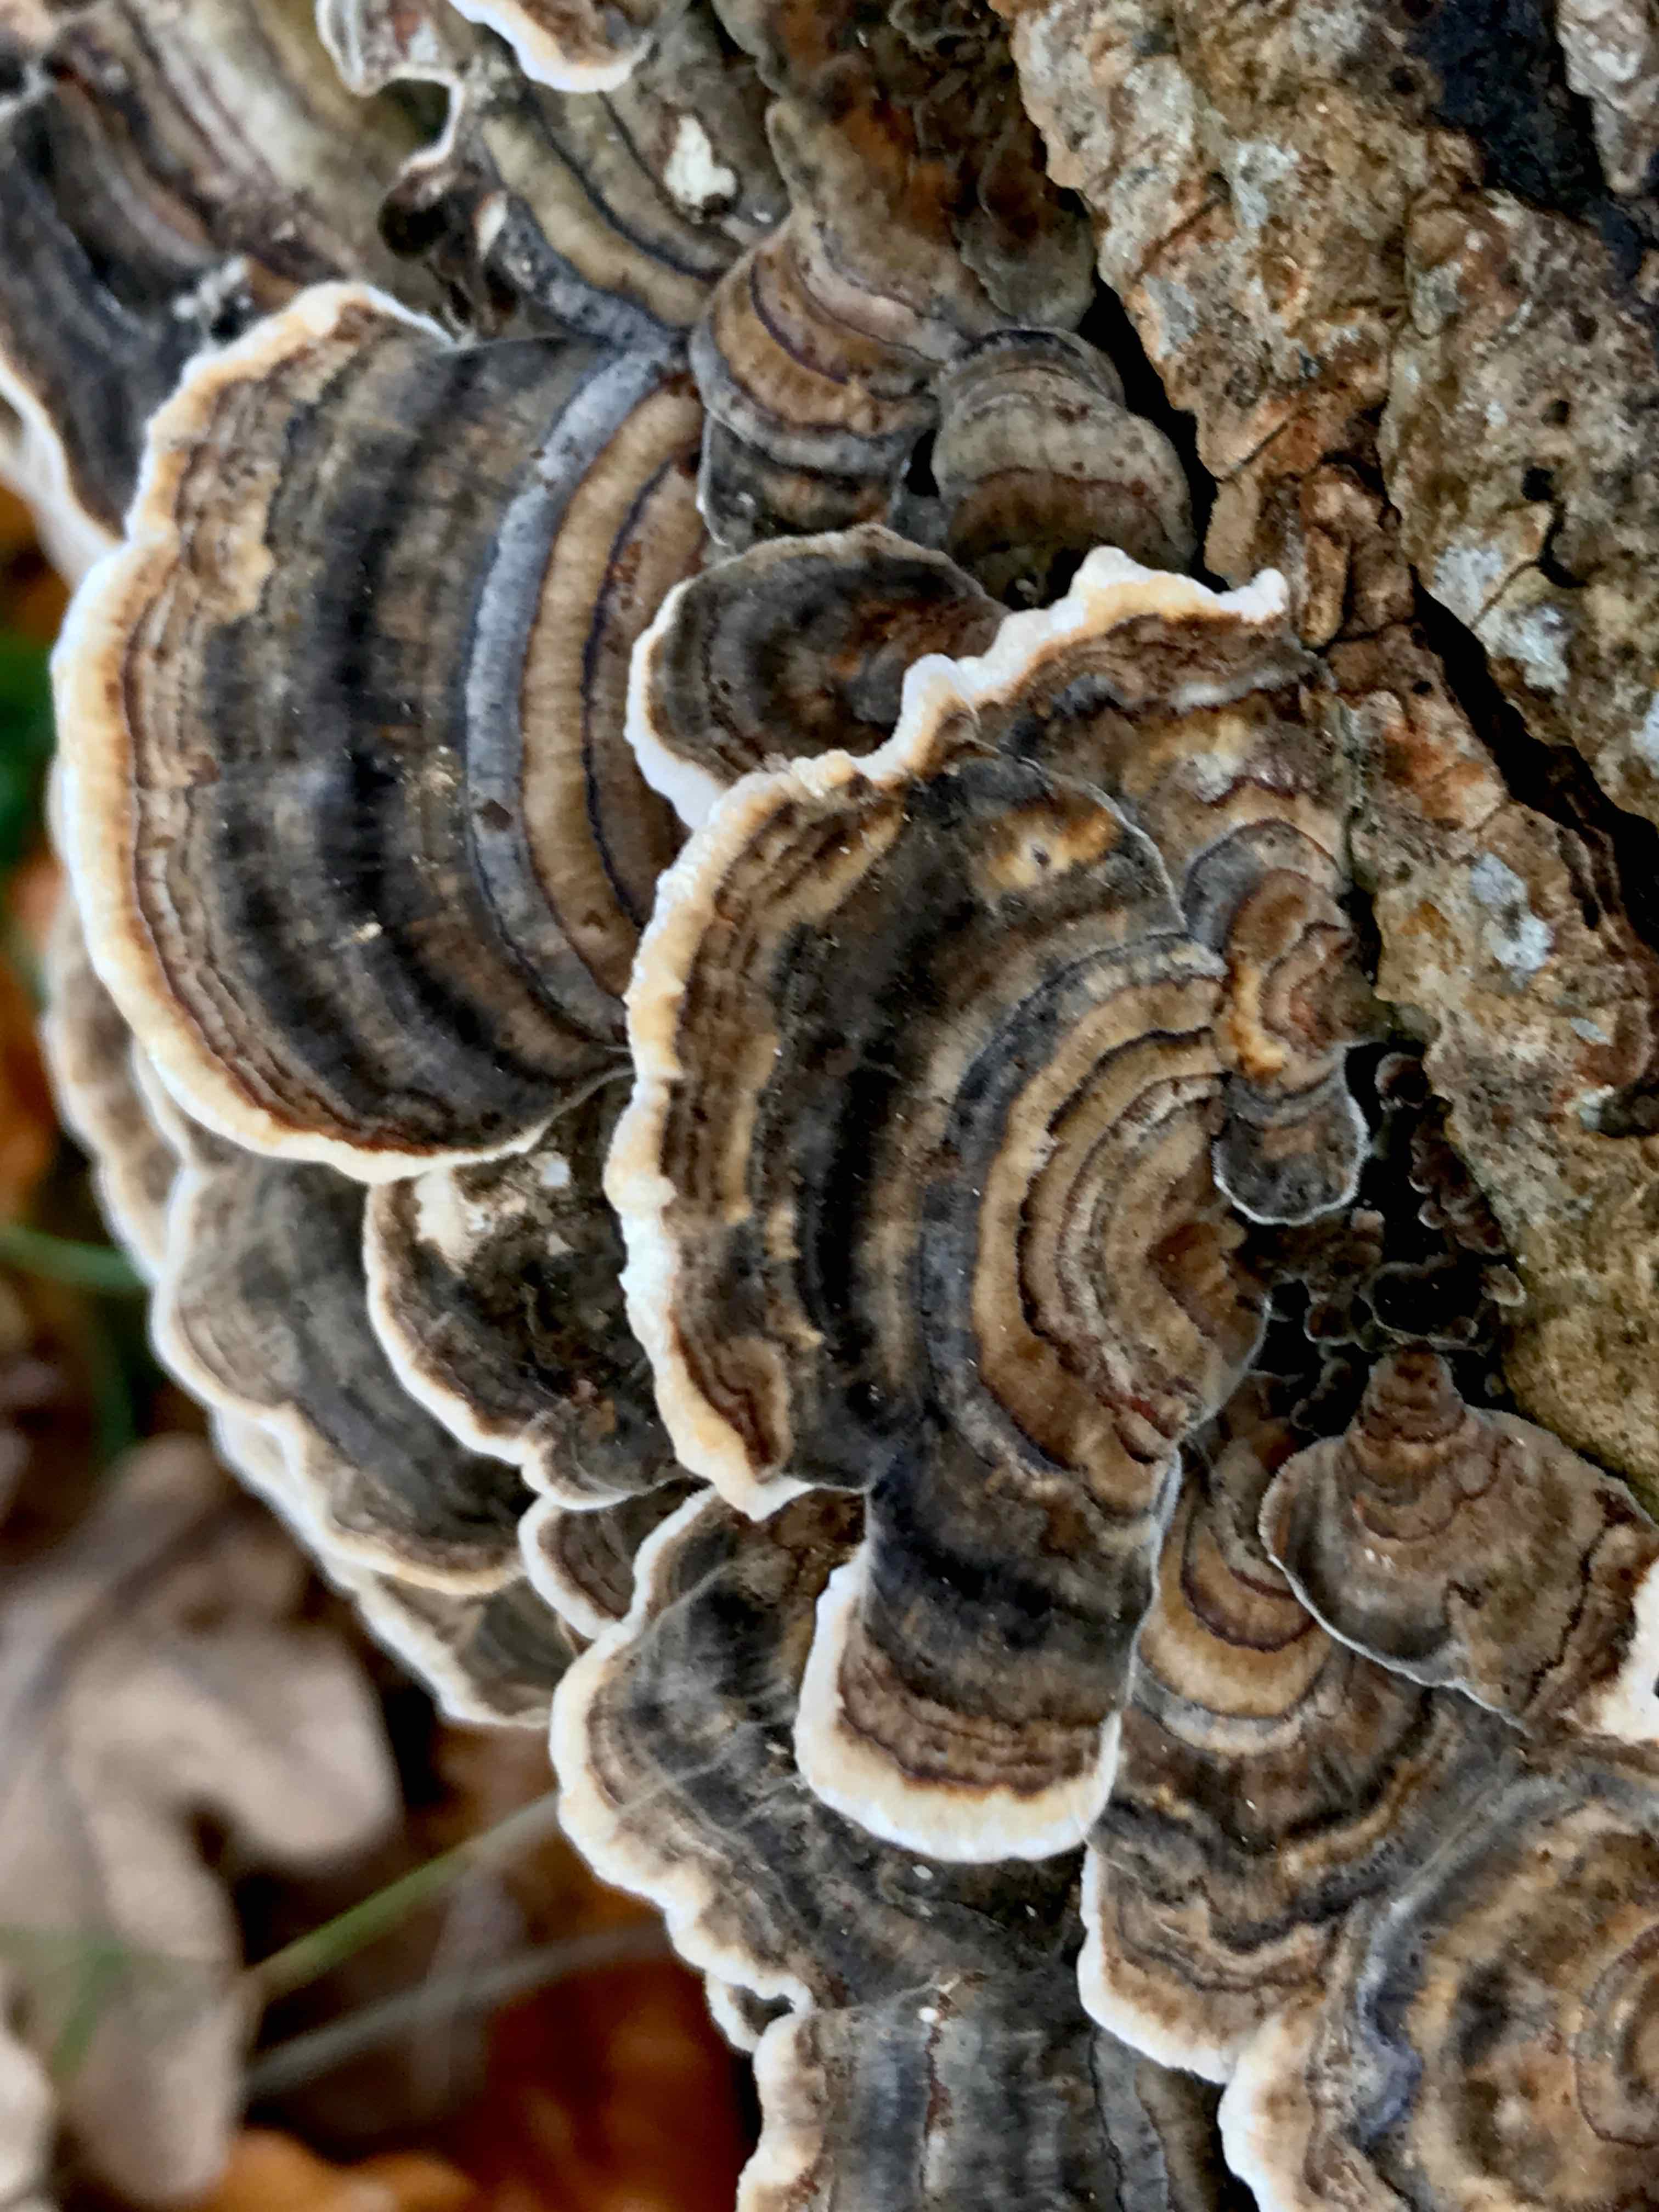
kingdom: Fungi
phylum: Basidiomycota
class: Agaricomycetes
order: Polyporales
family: Polyporaceae
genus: Trametes
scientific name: Trametes versicolor
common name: broget læderporesvamp
